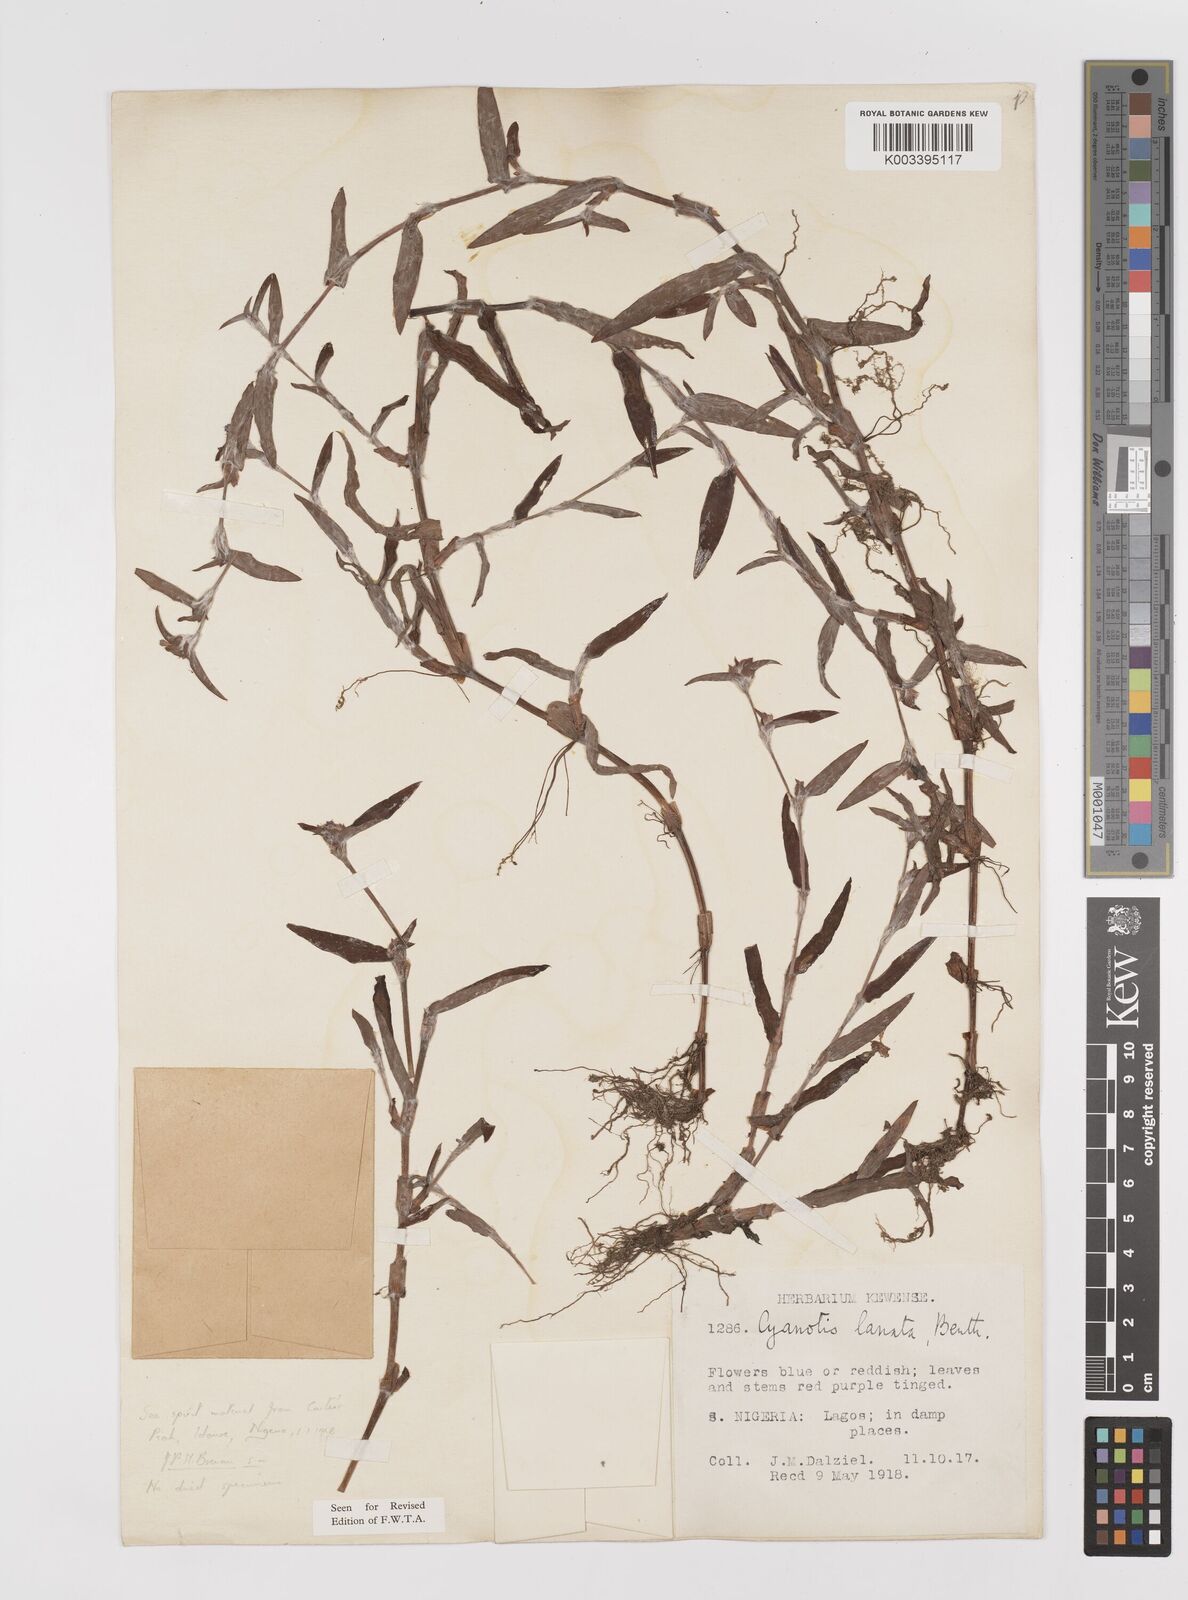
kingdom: Plantae
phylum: Tracheophyta
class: Liliopsida
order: Commelinales
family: Commelinaceae
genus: Cyanotis
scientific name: Cyanotis lanata
